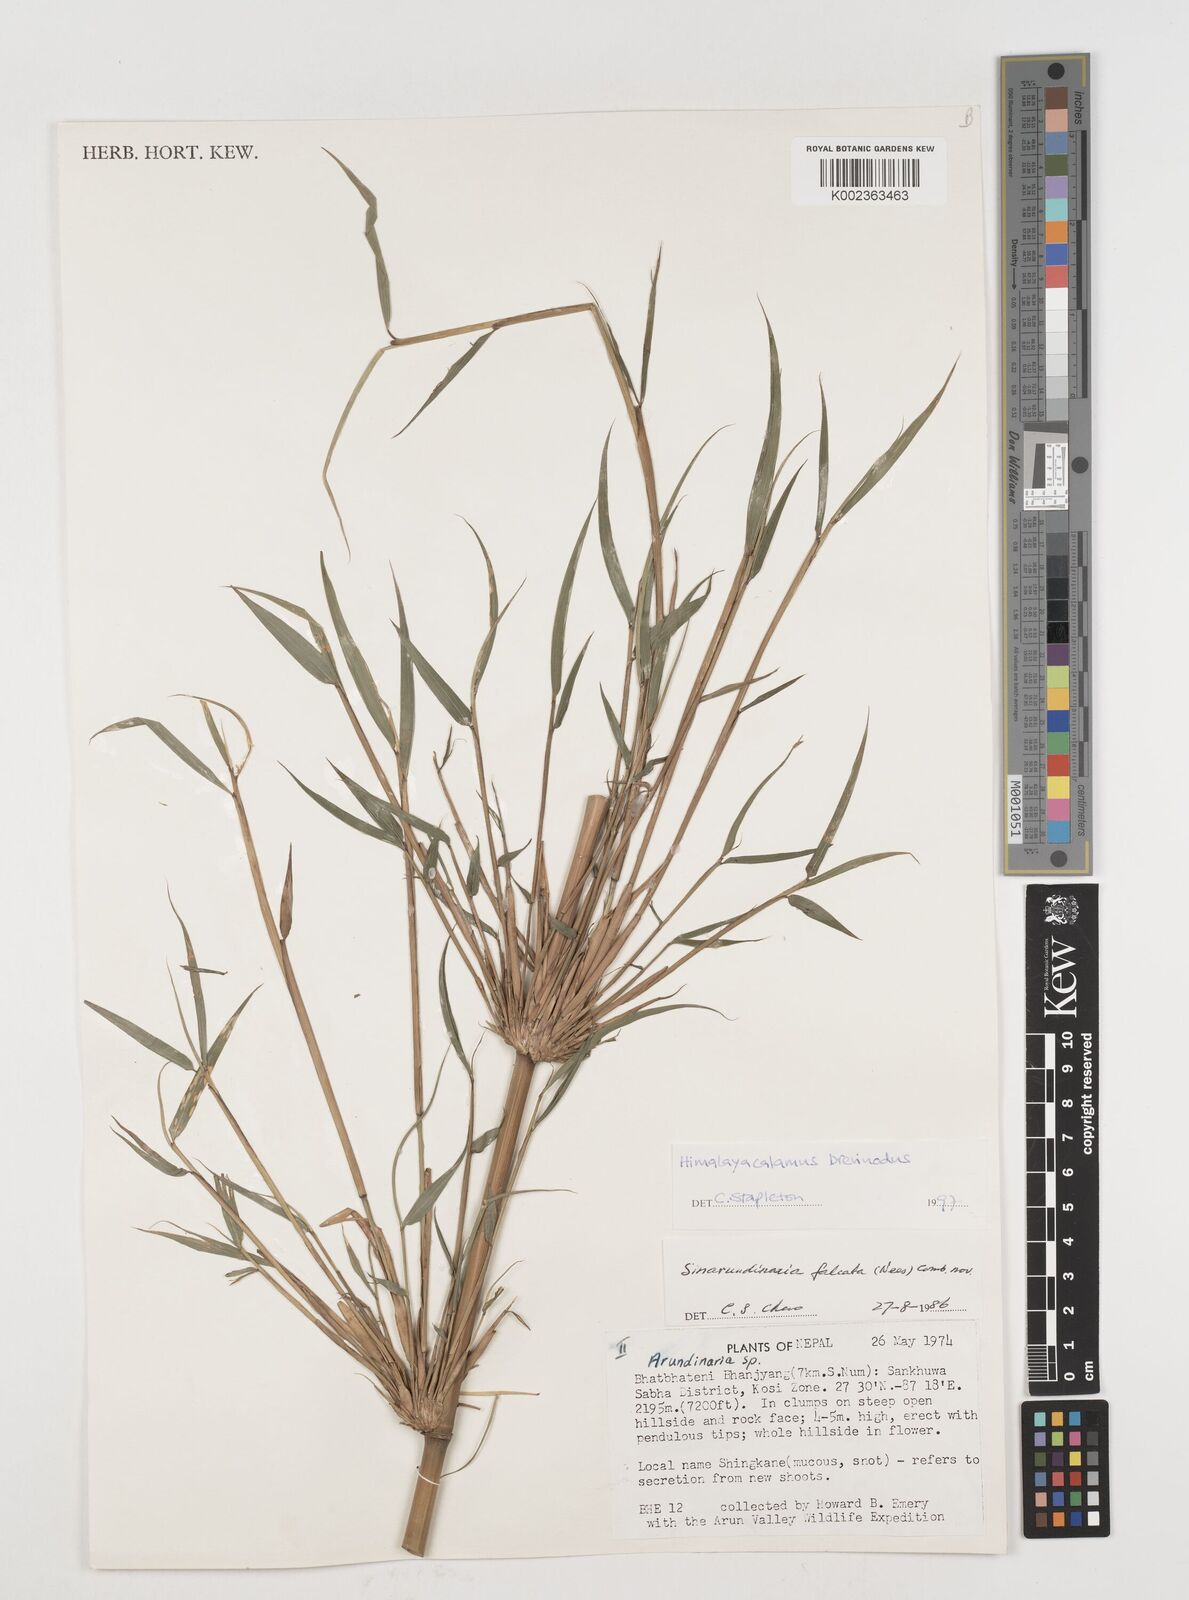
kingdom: Plantae
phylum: Tracheophyta
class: Liliopsida
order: Poales
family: Poaceae
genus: Himalayacalamus
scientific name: Himalayacalamus brevinodus
